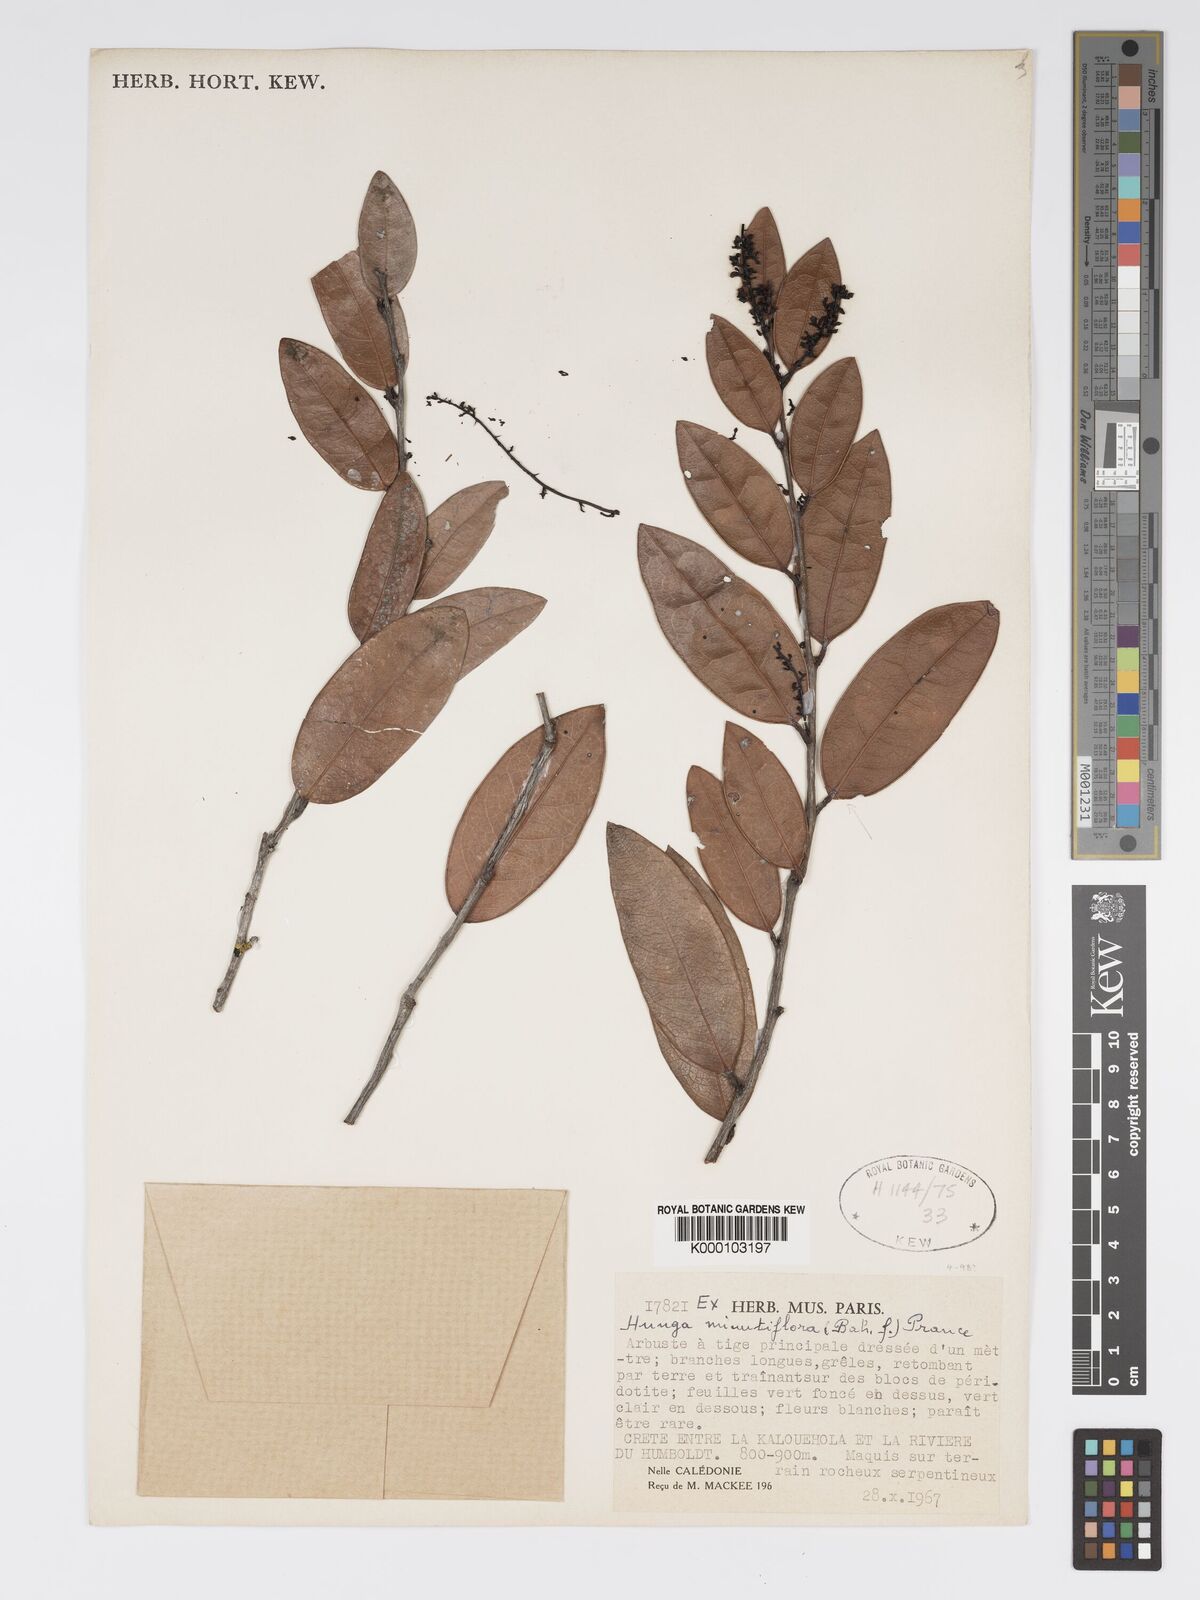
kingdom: Plantae
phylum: Tracheophyta
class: Magnoliopsida
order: Malpighiales
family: Chrysobalanaceae
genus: Hunga
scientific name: Hunga minutiflora
